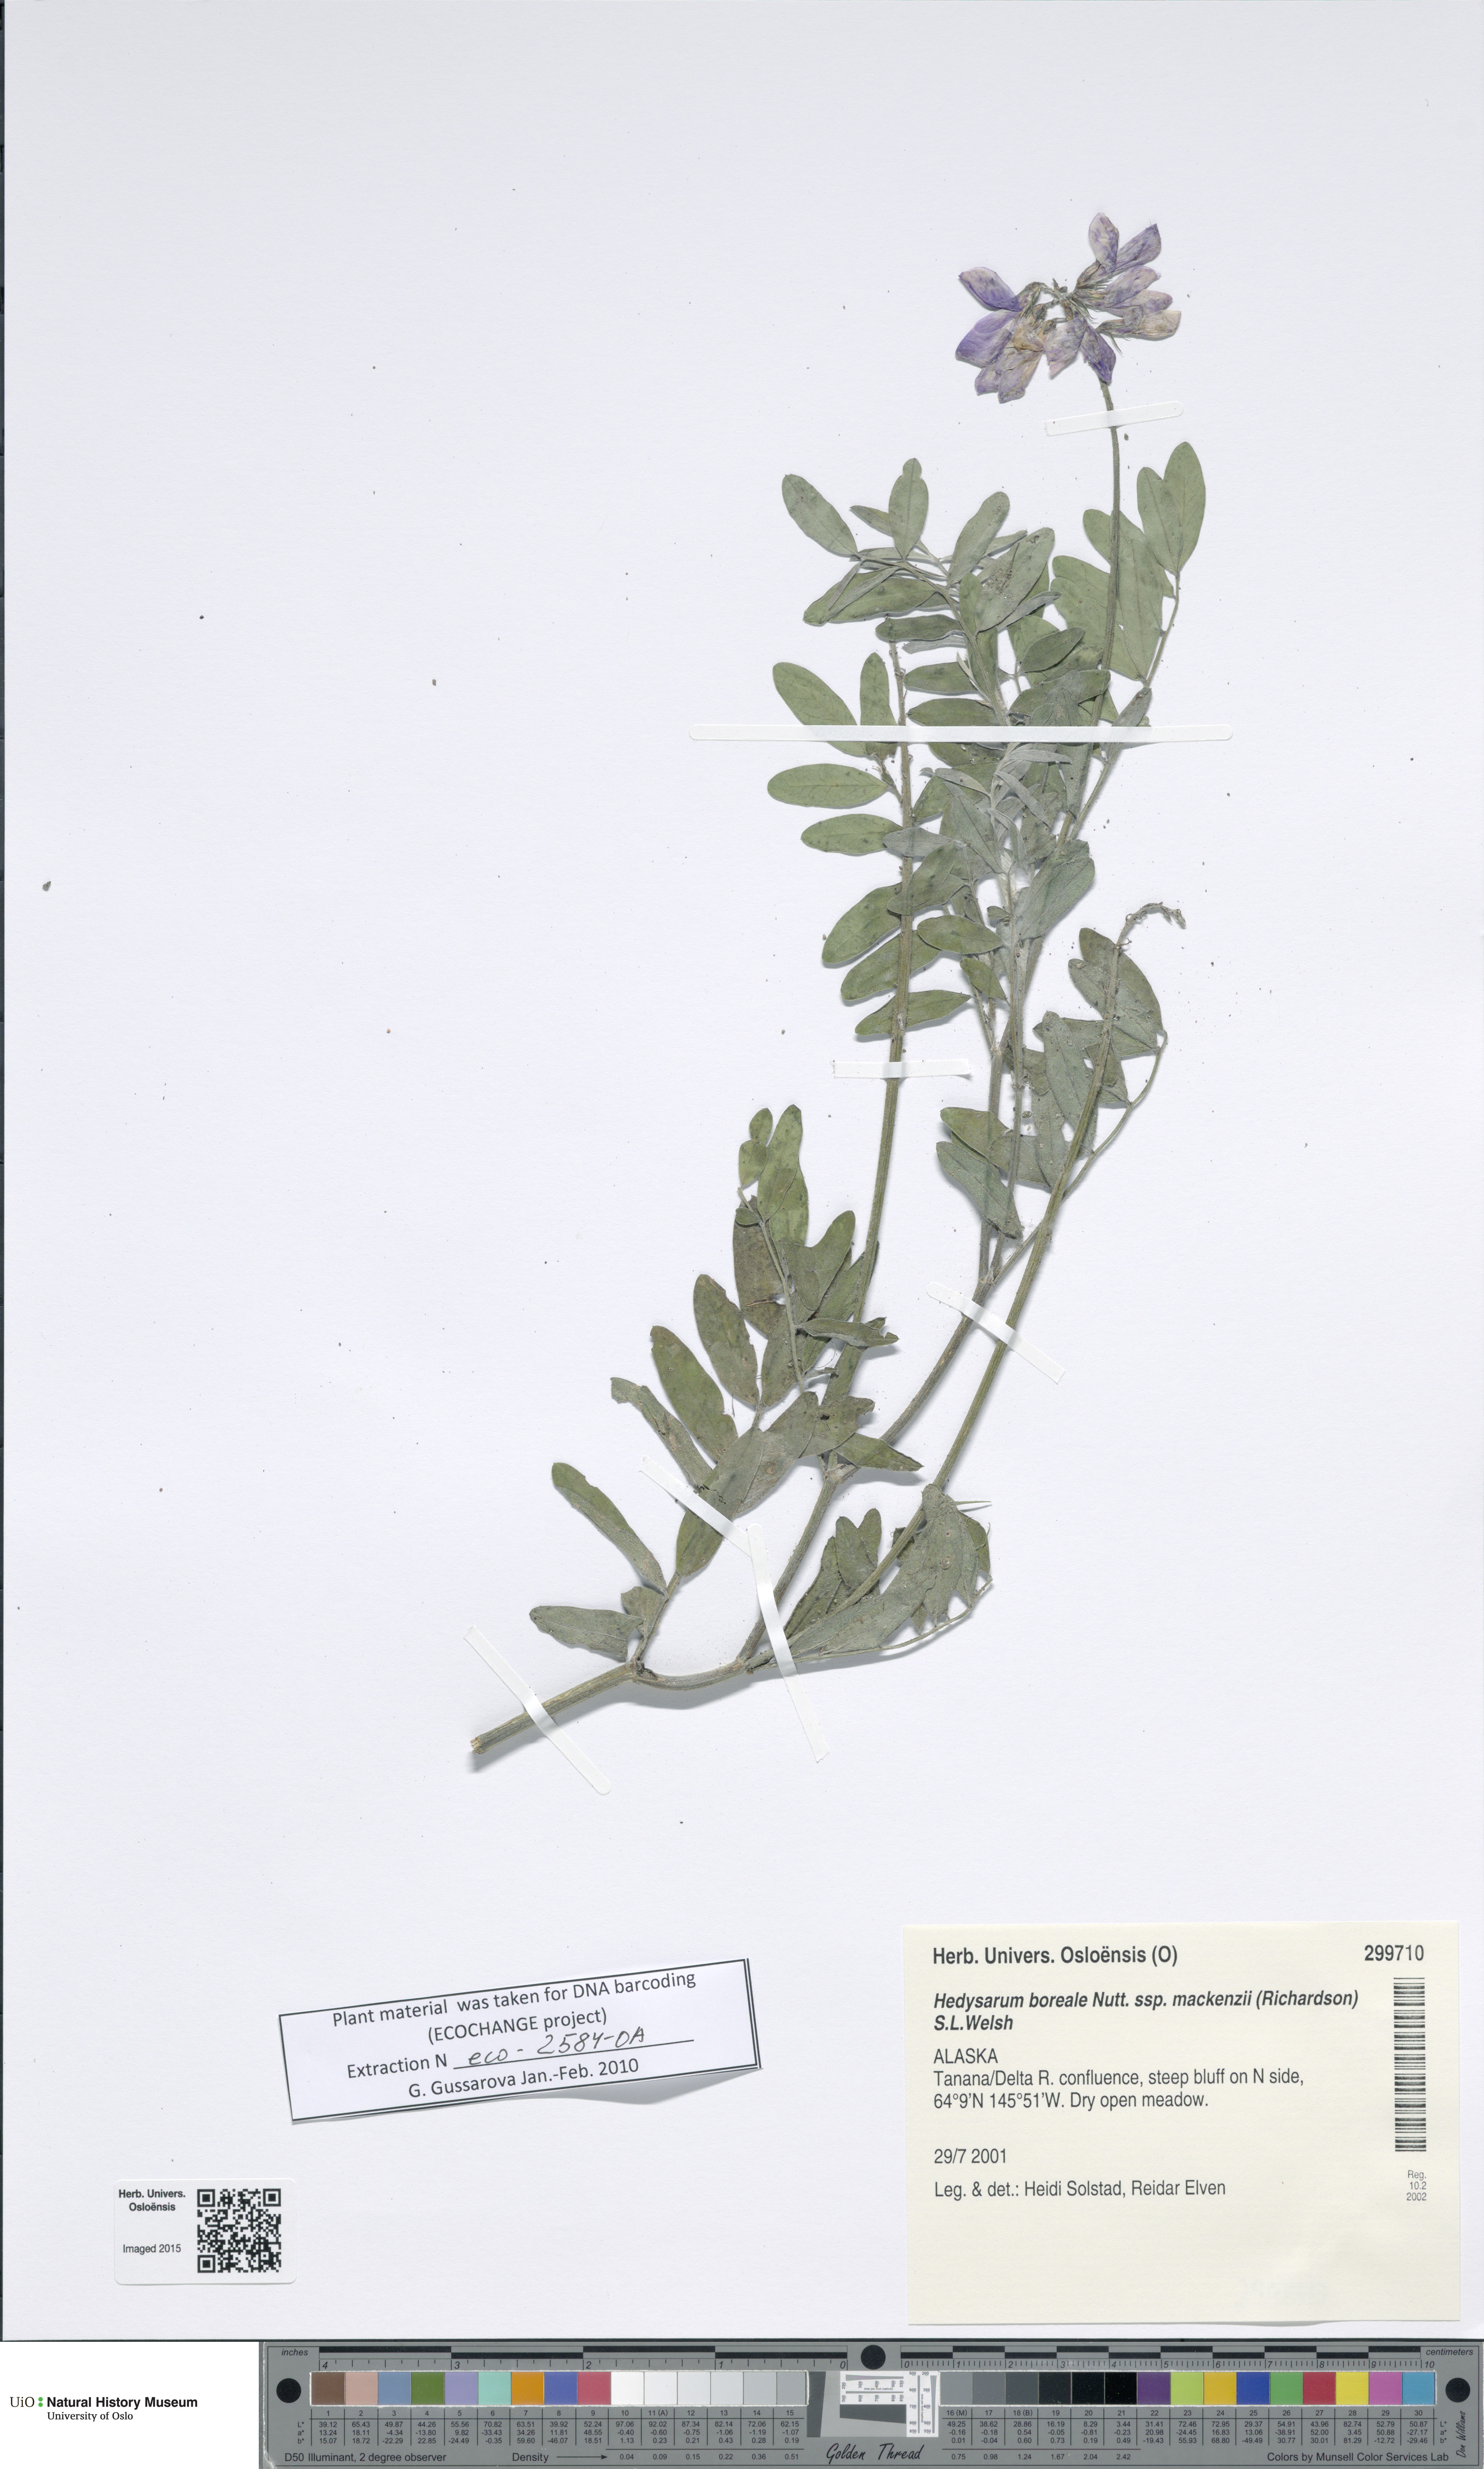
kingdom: Plantae
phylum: Tracheophyta
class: Magnoliopsida
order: Fabales
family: Fabaceae
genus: Hedysarum
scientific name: Hedysarum boreale
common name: Northern sweet-vetch
